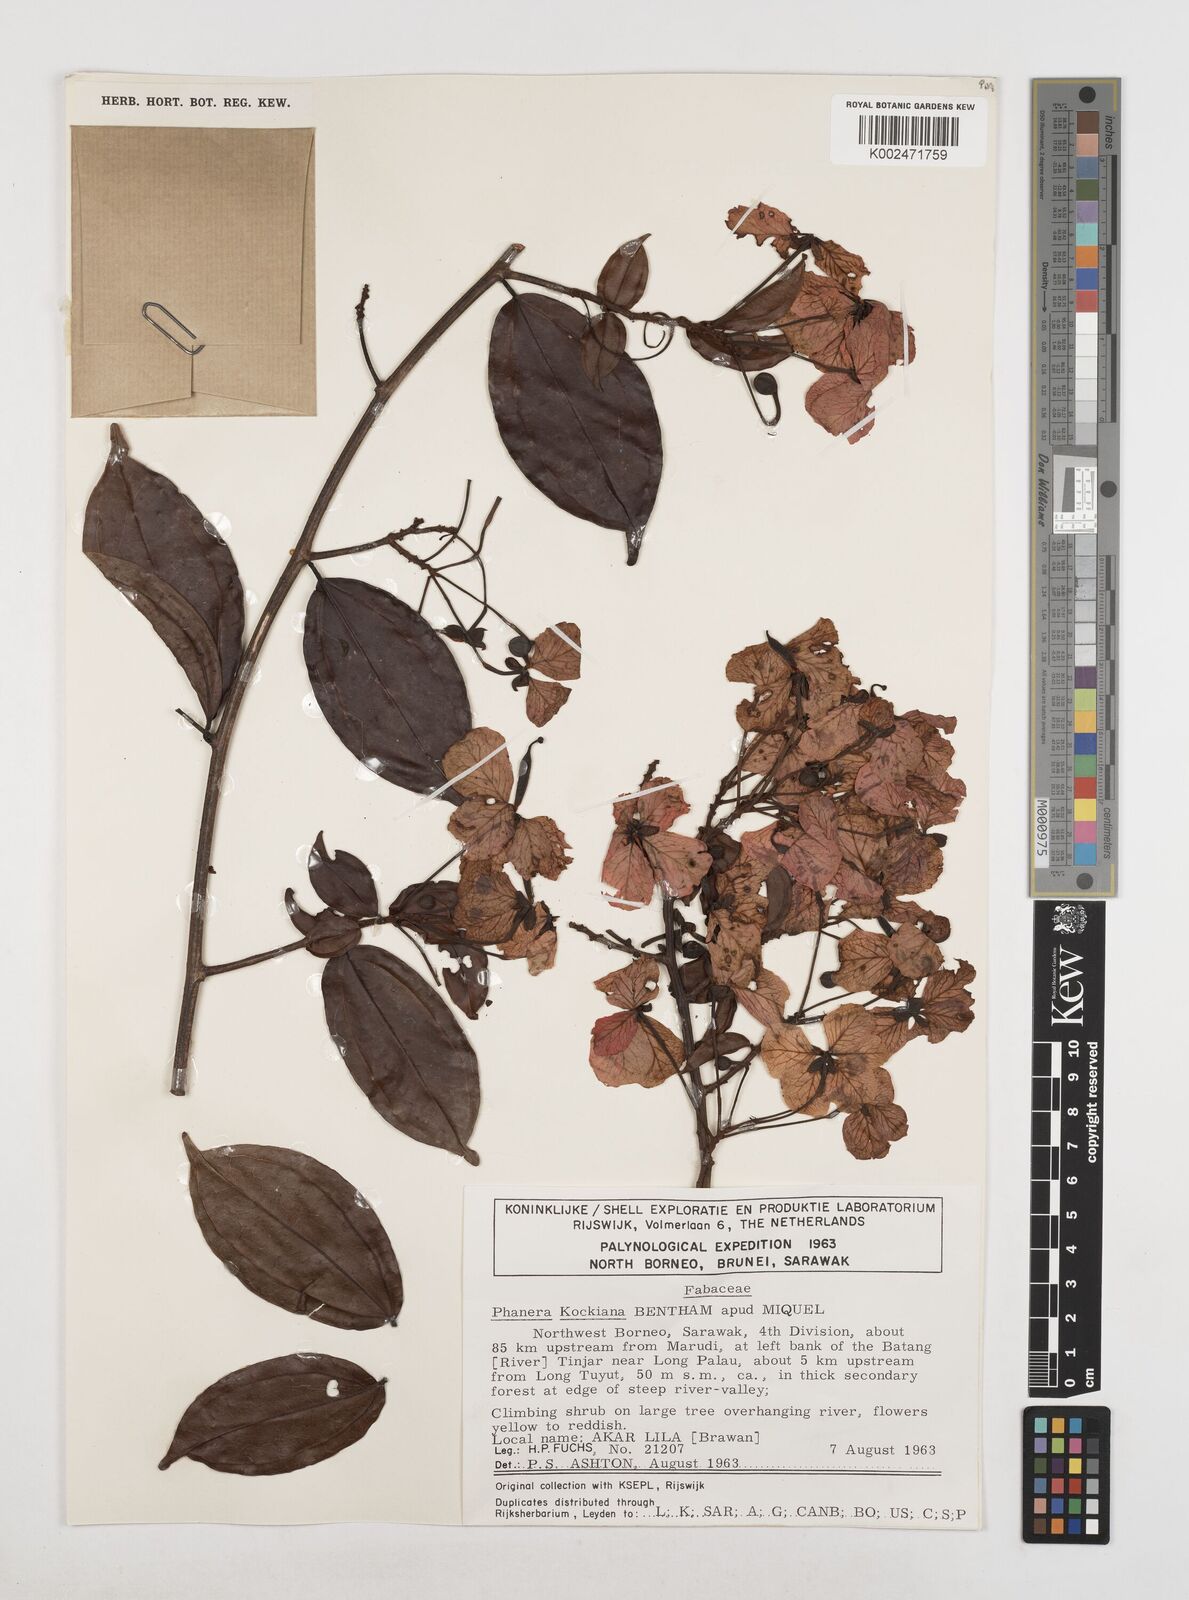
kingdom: Plantae
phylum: Tracheophyta
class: Magnoliopsida
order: Fabales
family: Fabaceae
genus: Phanera
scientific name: Phanera kockiana
